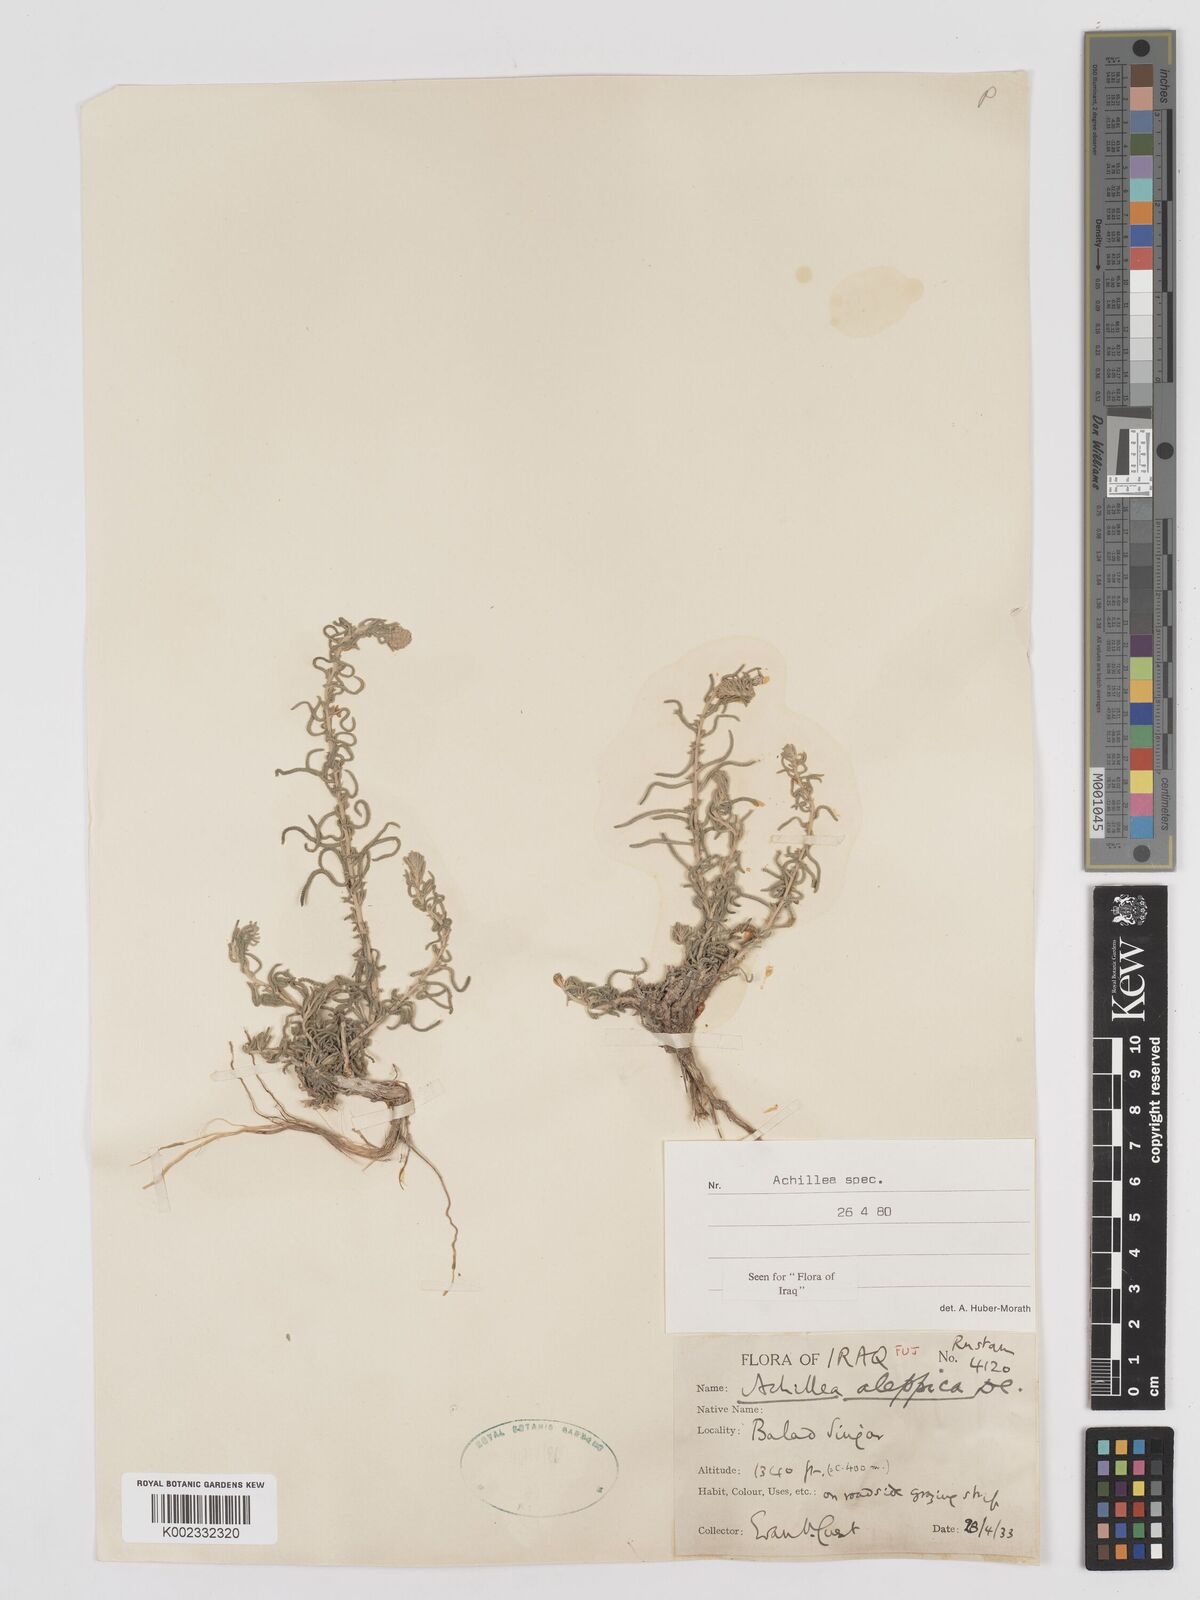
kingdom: Plantae
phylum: Tracheophyta
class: Magnoliopsida
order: Asterales
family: Asteraceae
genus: Achillea
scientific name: Achillea aleppica
